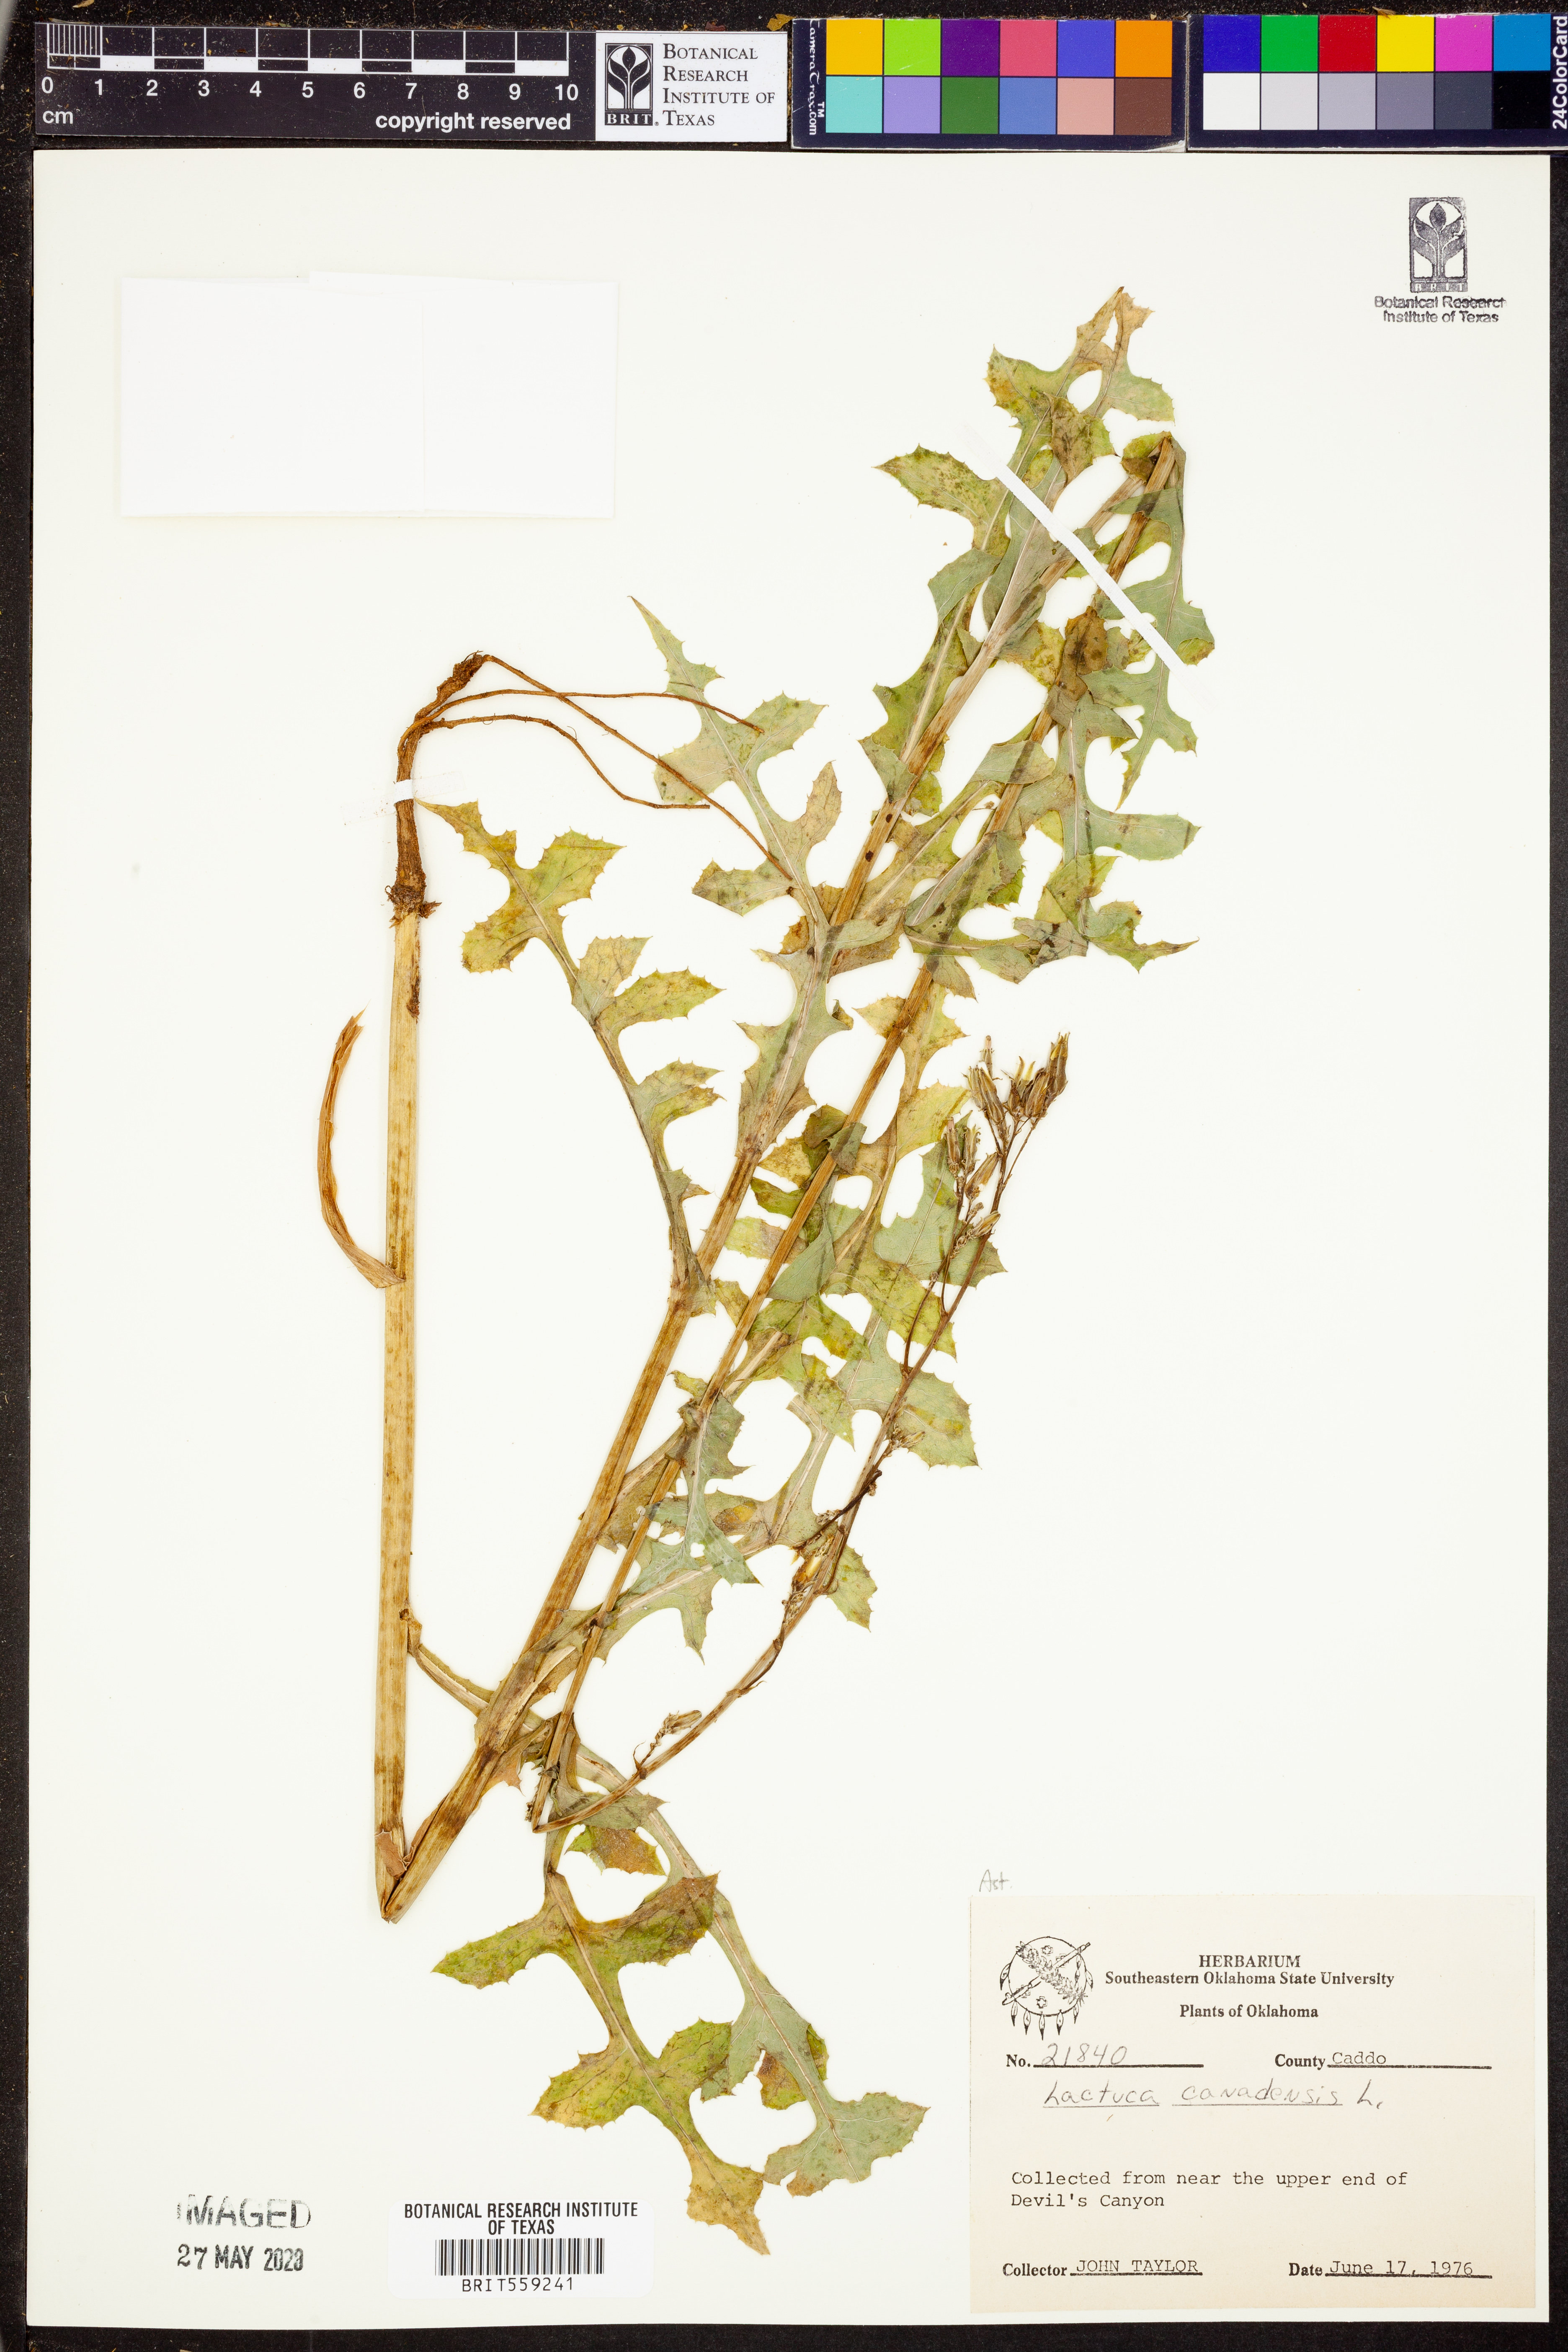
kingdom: Plantae
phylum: Tracheophyta
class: Magnoliopsida
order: Asterales
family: Asteraceae
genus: Lactuca
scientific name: Lactuca canadensis
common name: Canada lettuce
